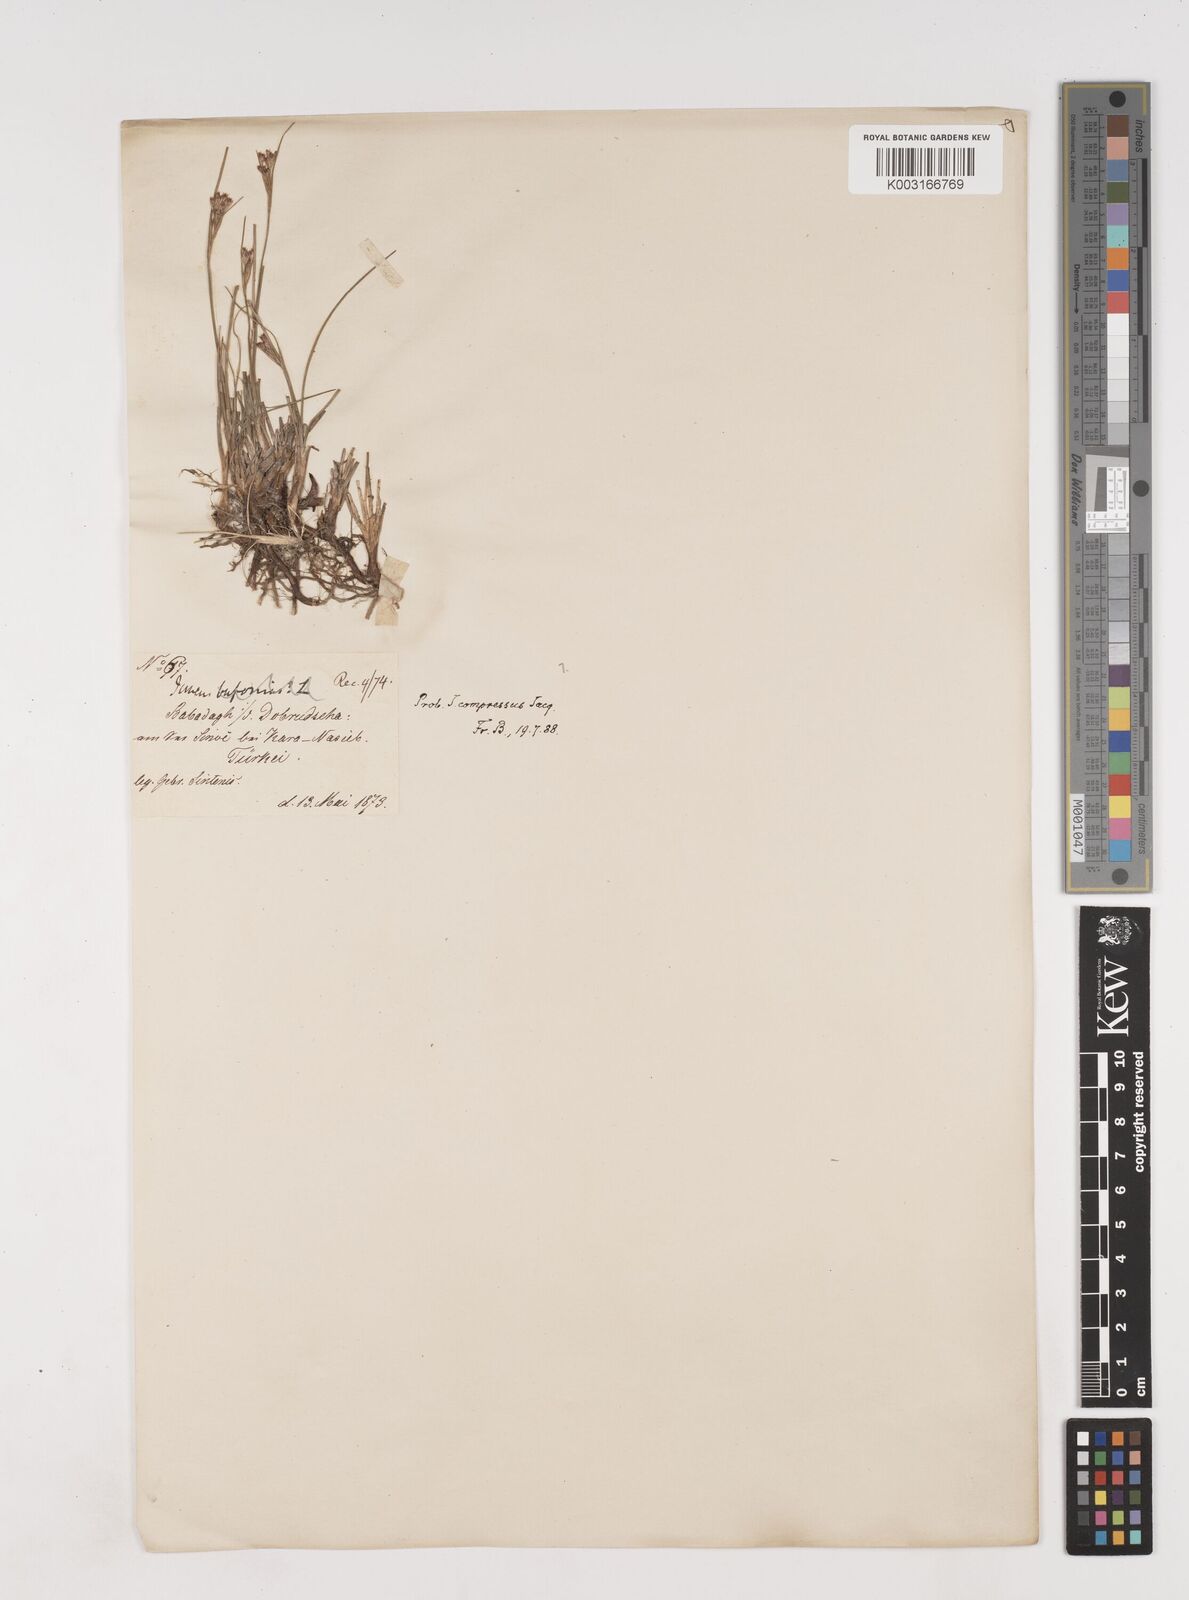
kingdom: Plantae
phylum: Tracheophyta
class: Liliopsida
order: Poales
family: Juncaceae
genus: Juncus
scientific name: Juncus
